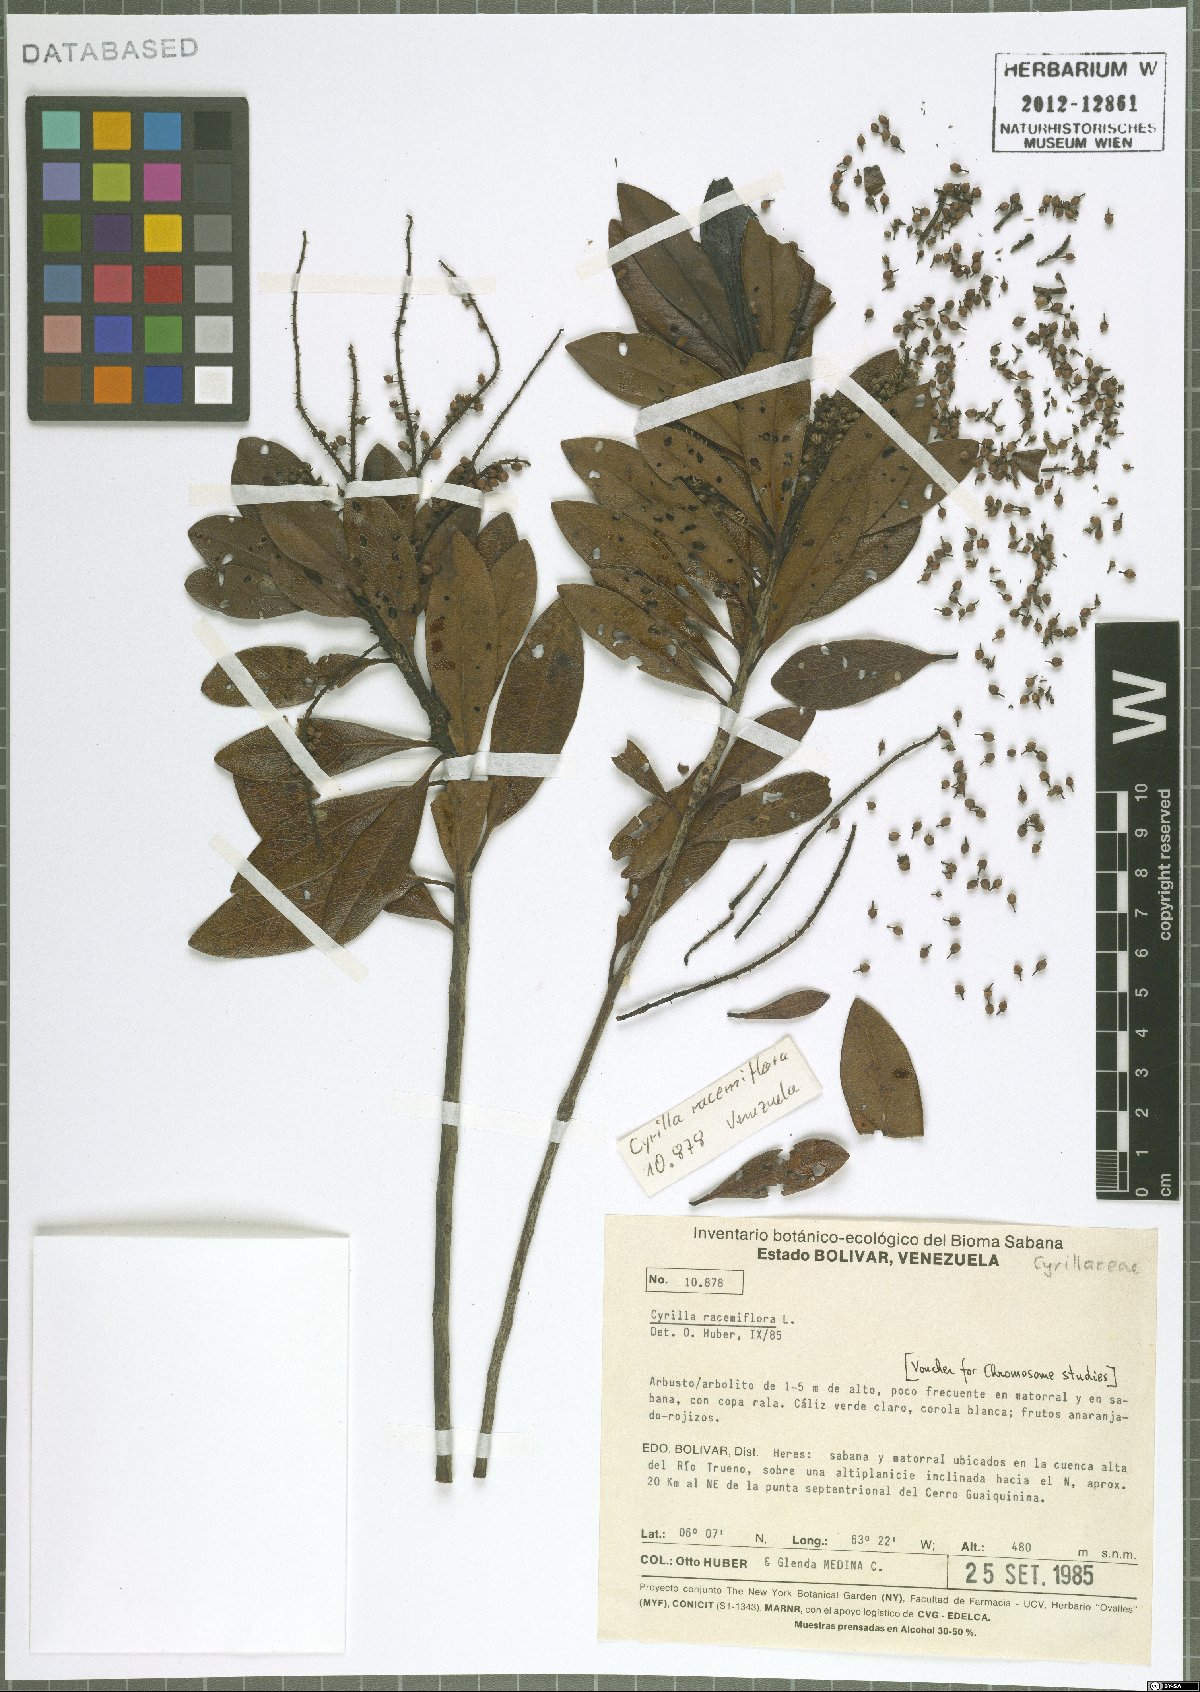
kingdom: Plantae
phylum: Tracheophyta
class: Magnoliopsida
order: Ericales
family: Cyrillaceae
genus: Cyrilla
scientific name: Cyrilla racemiflora
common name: Black titi
